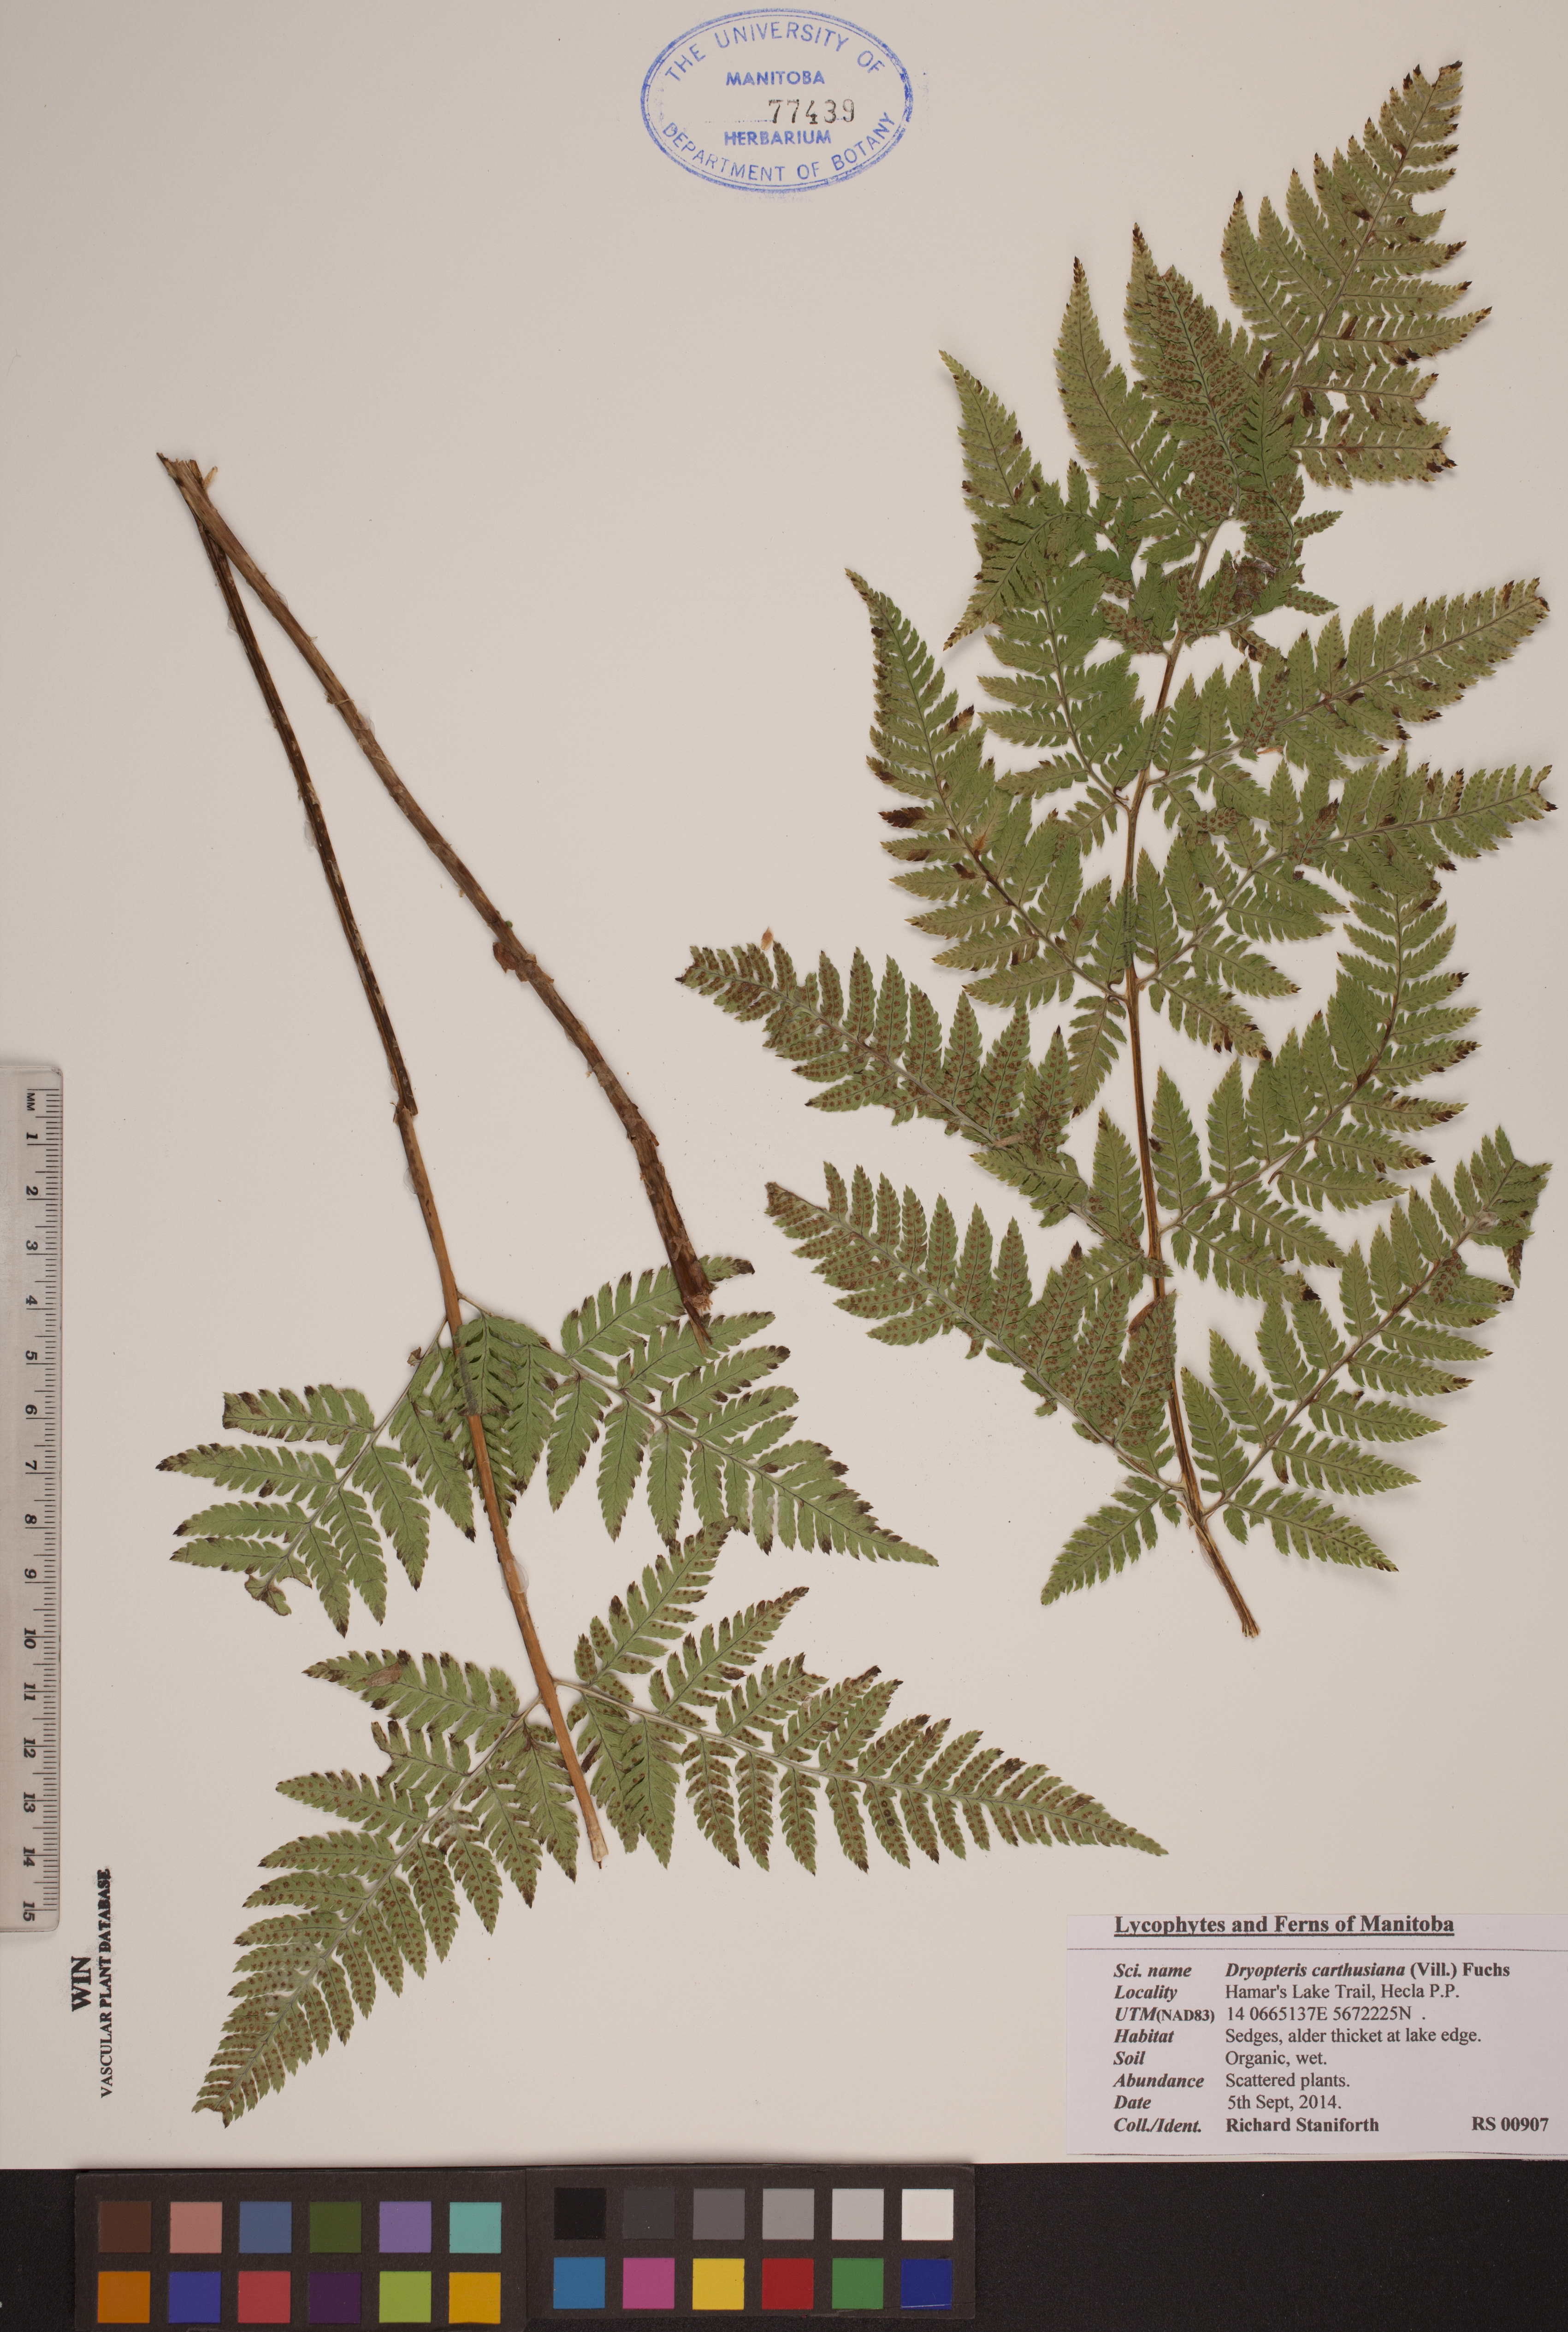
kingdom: Plantae
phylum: Tracheophyta
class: Polypodiopsida
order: Polypodiales
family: Dryopteridaceae
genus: Dryopteris
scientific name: Dryopteris carthusiana
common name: Narrow buckler-fern
